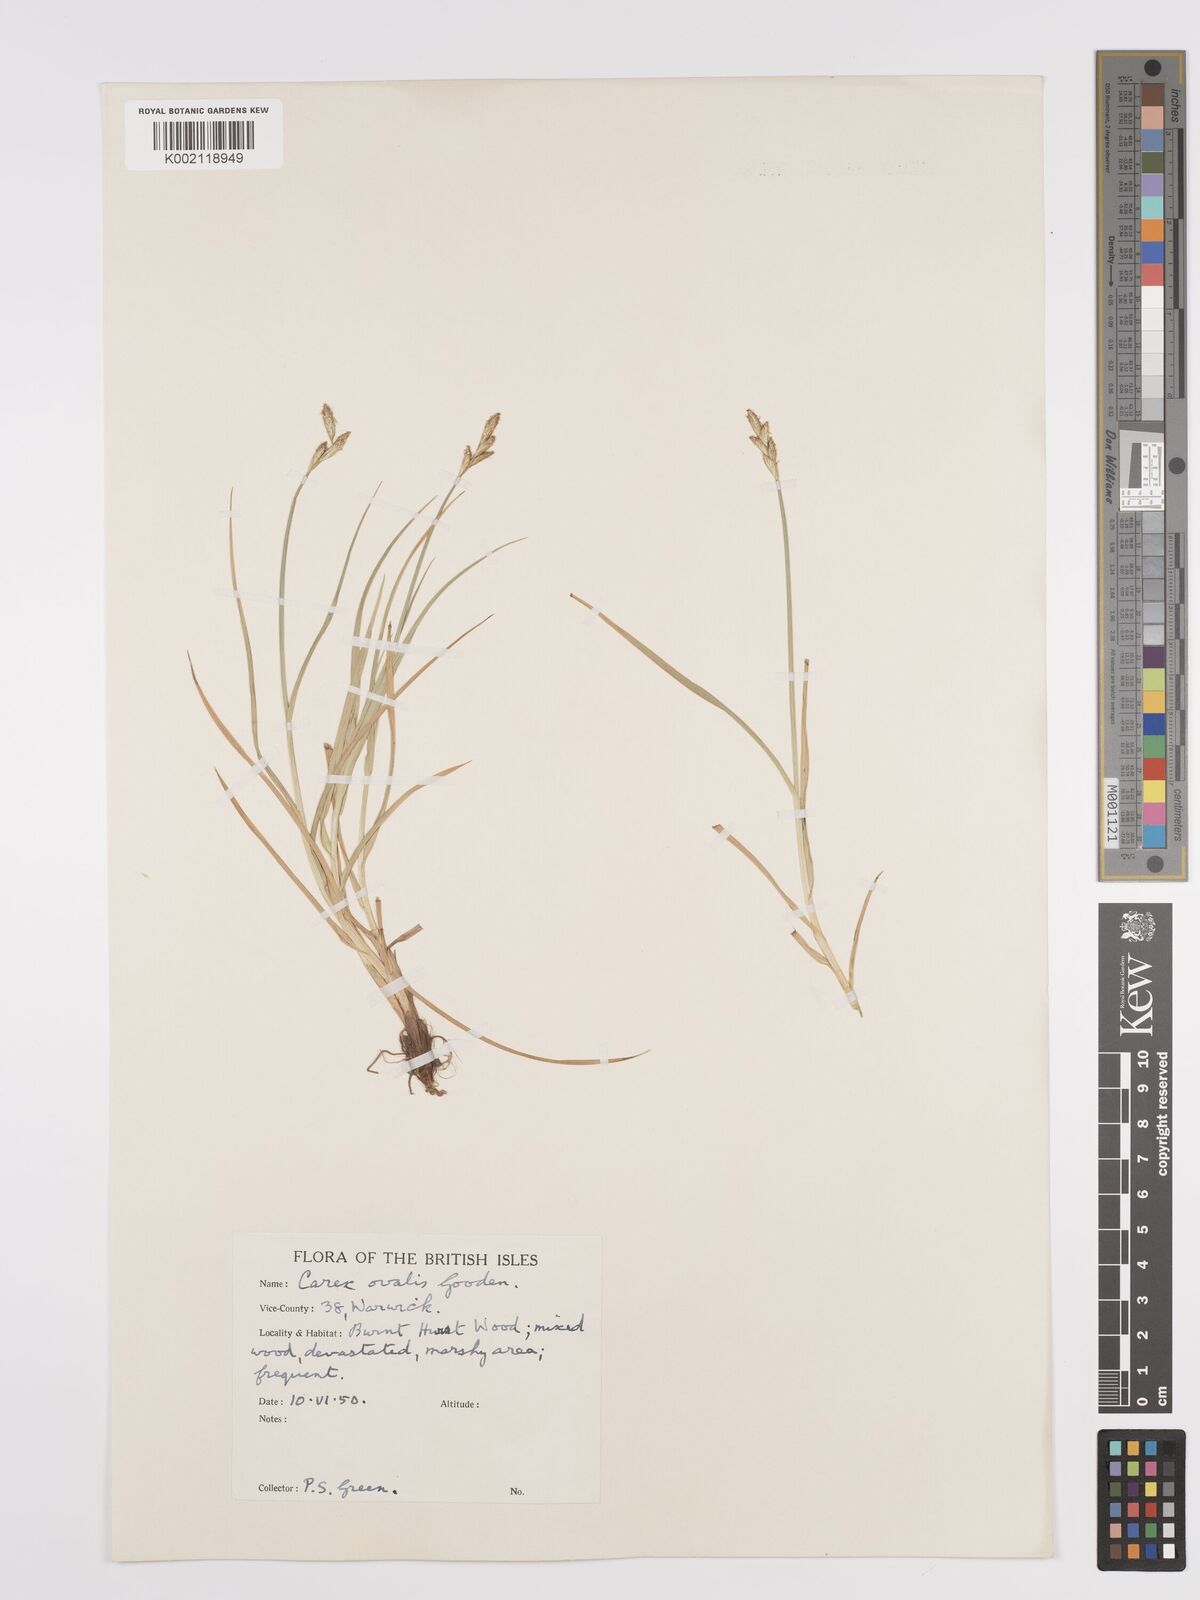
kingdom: Plantae
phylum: Tracheophyta
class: Liliopsida
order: Poales
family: Cyperaceae
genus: Carex
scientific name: Carex leporina
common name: Oval sedge
